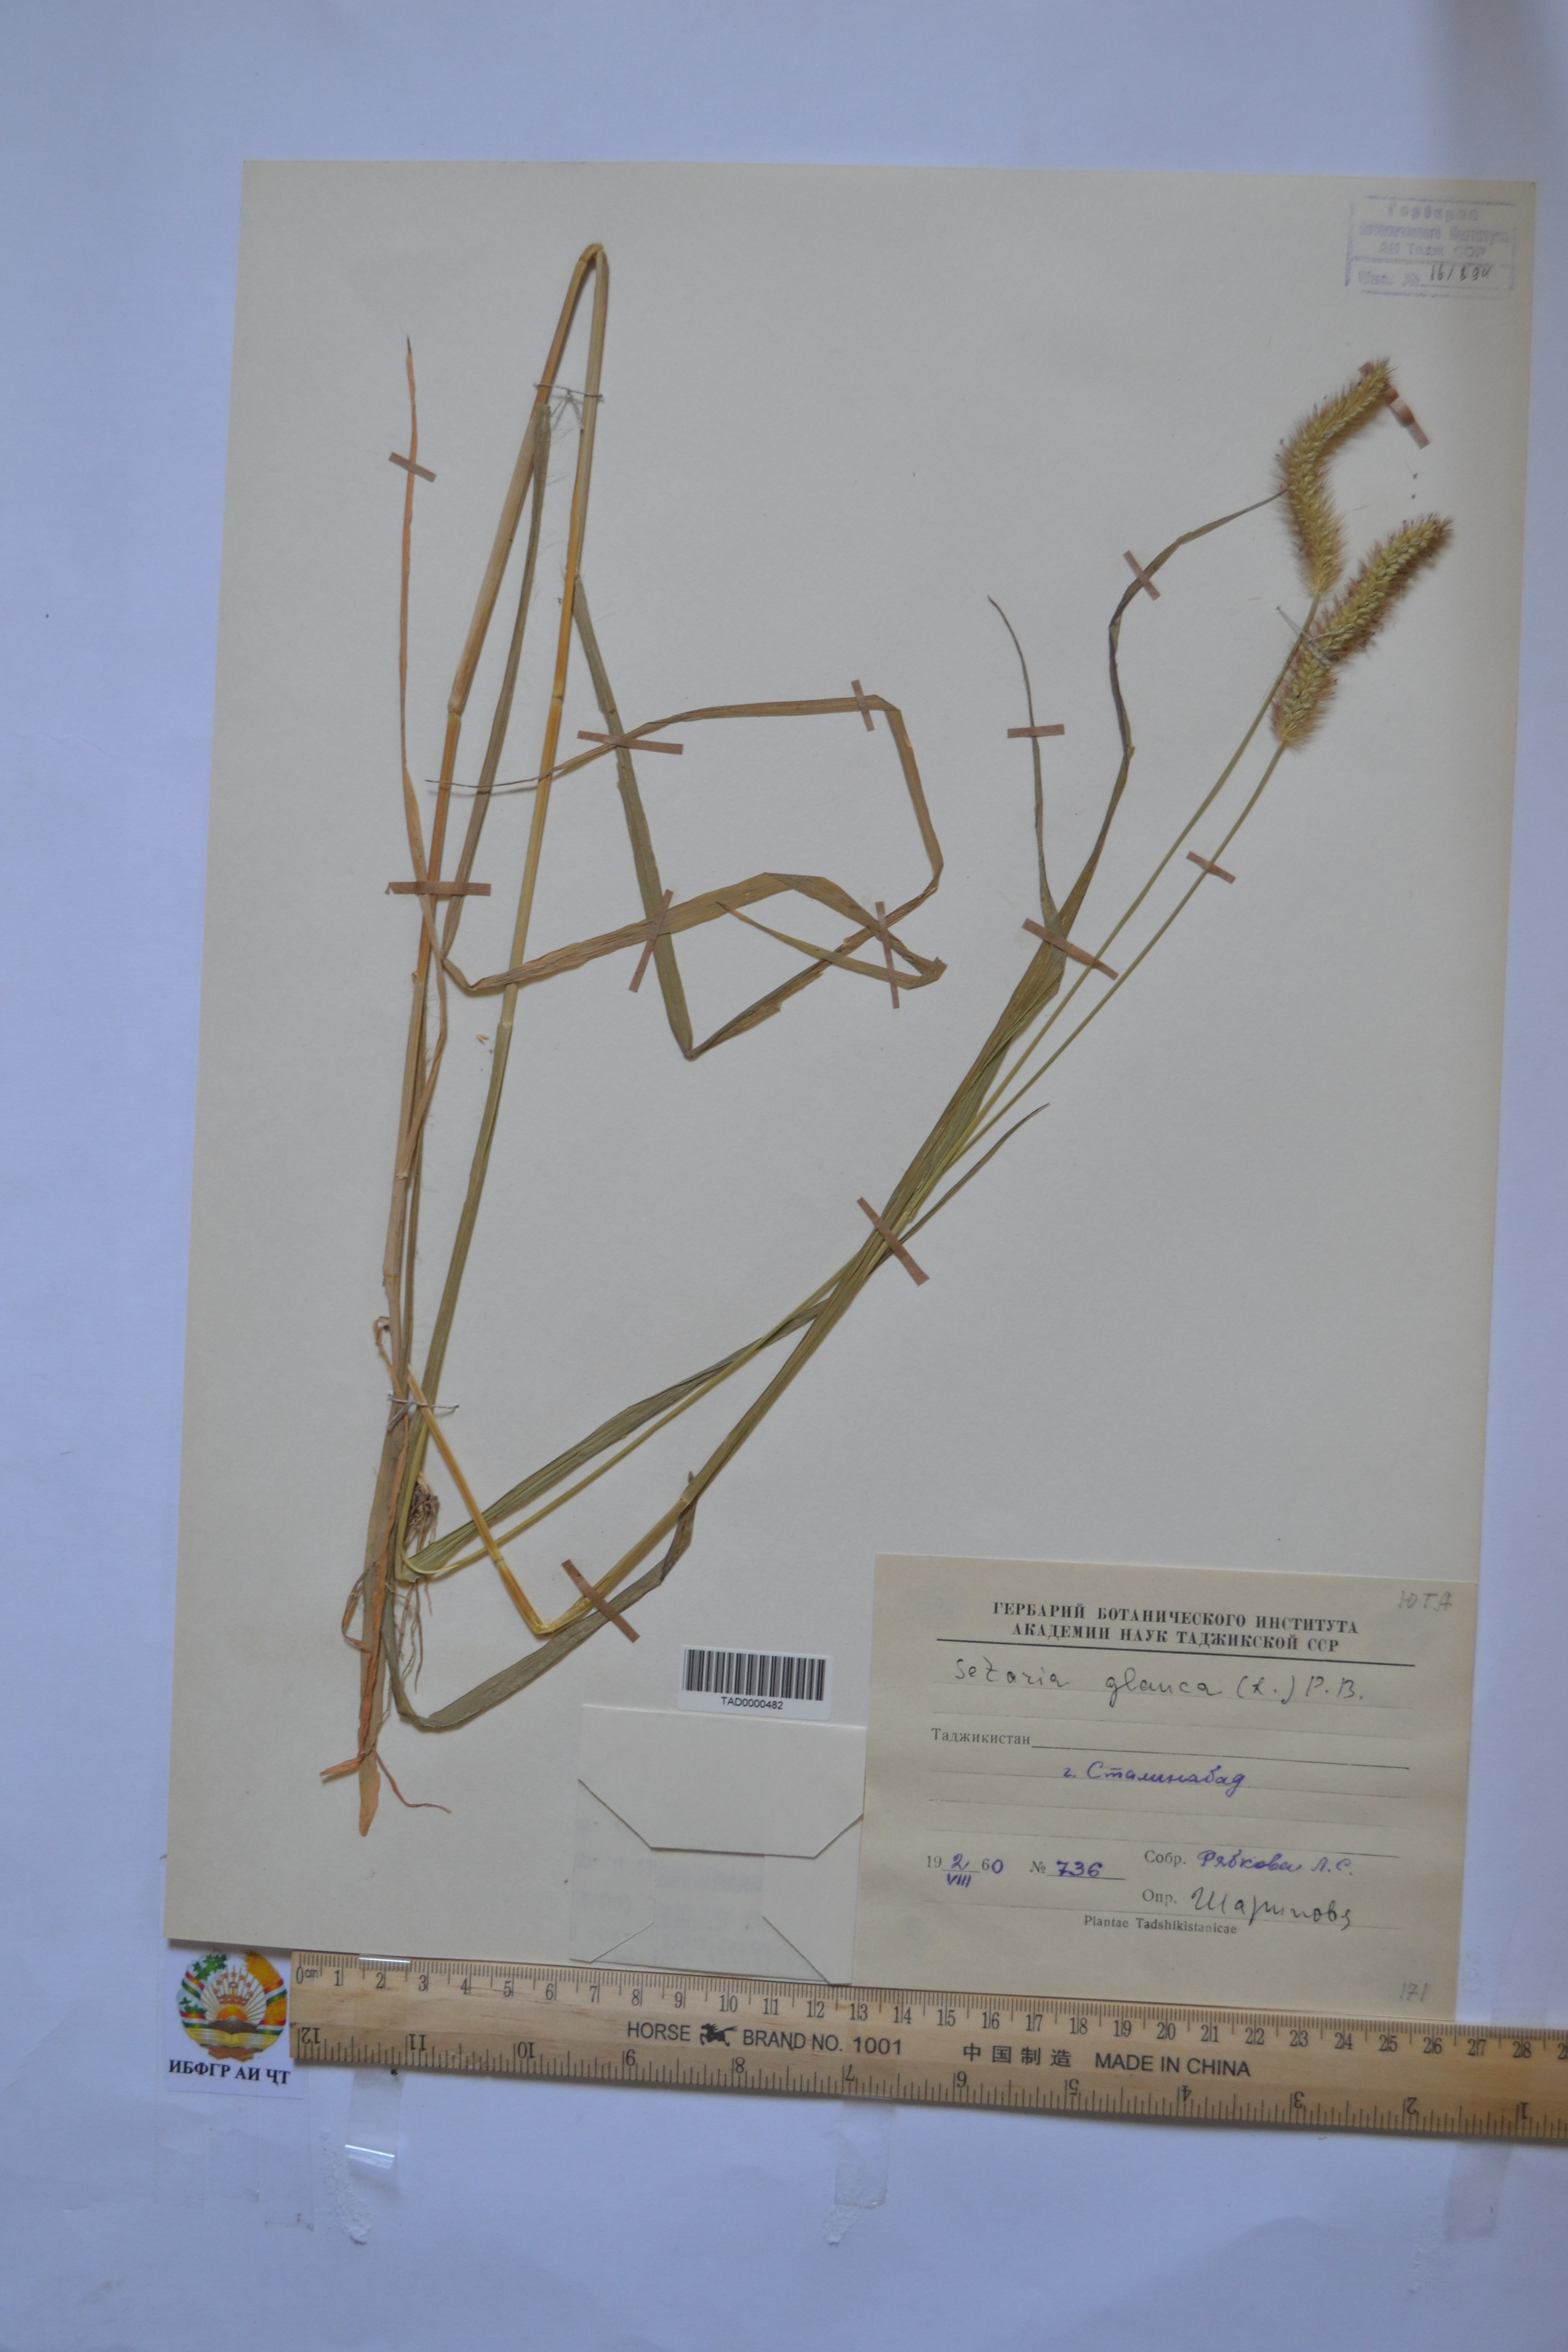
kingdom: Plantae
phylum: Tracheophyta
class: Liliopsida
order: Poales
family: Poaceae
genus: Cenchrus
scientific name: Cenchrus americanus
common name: Pearl millet
